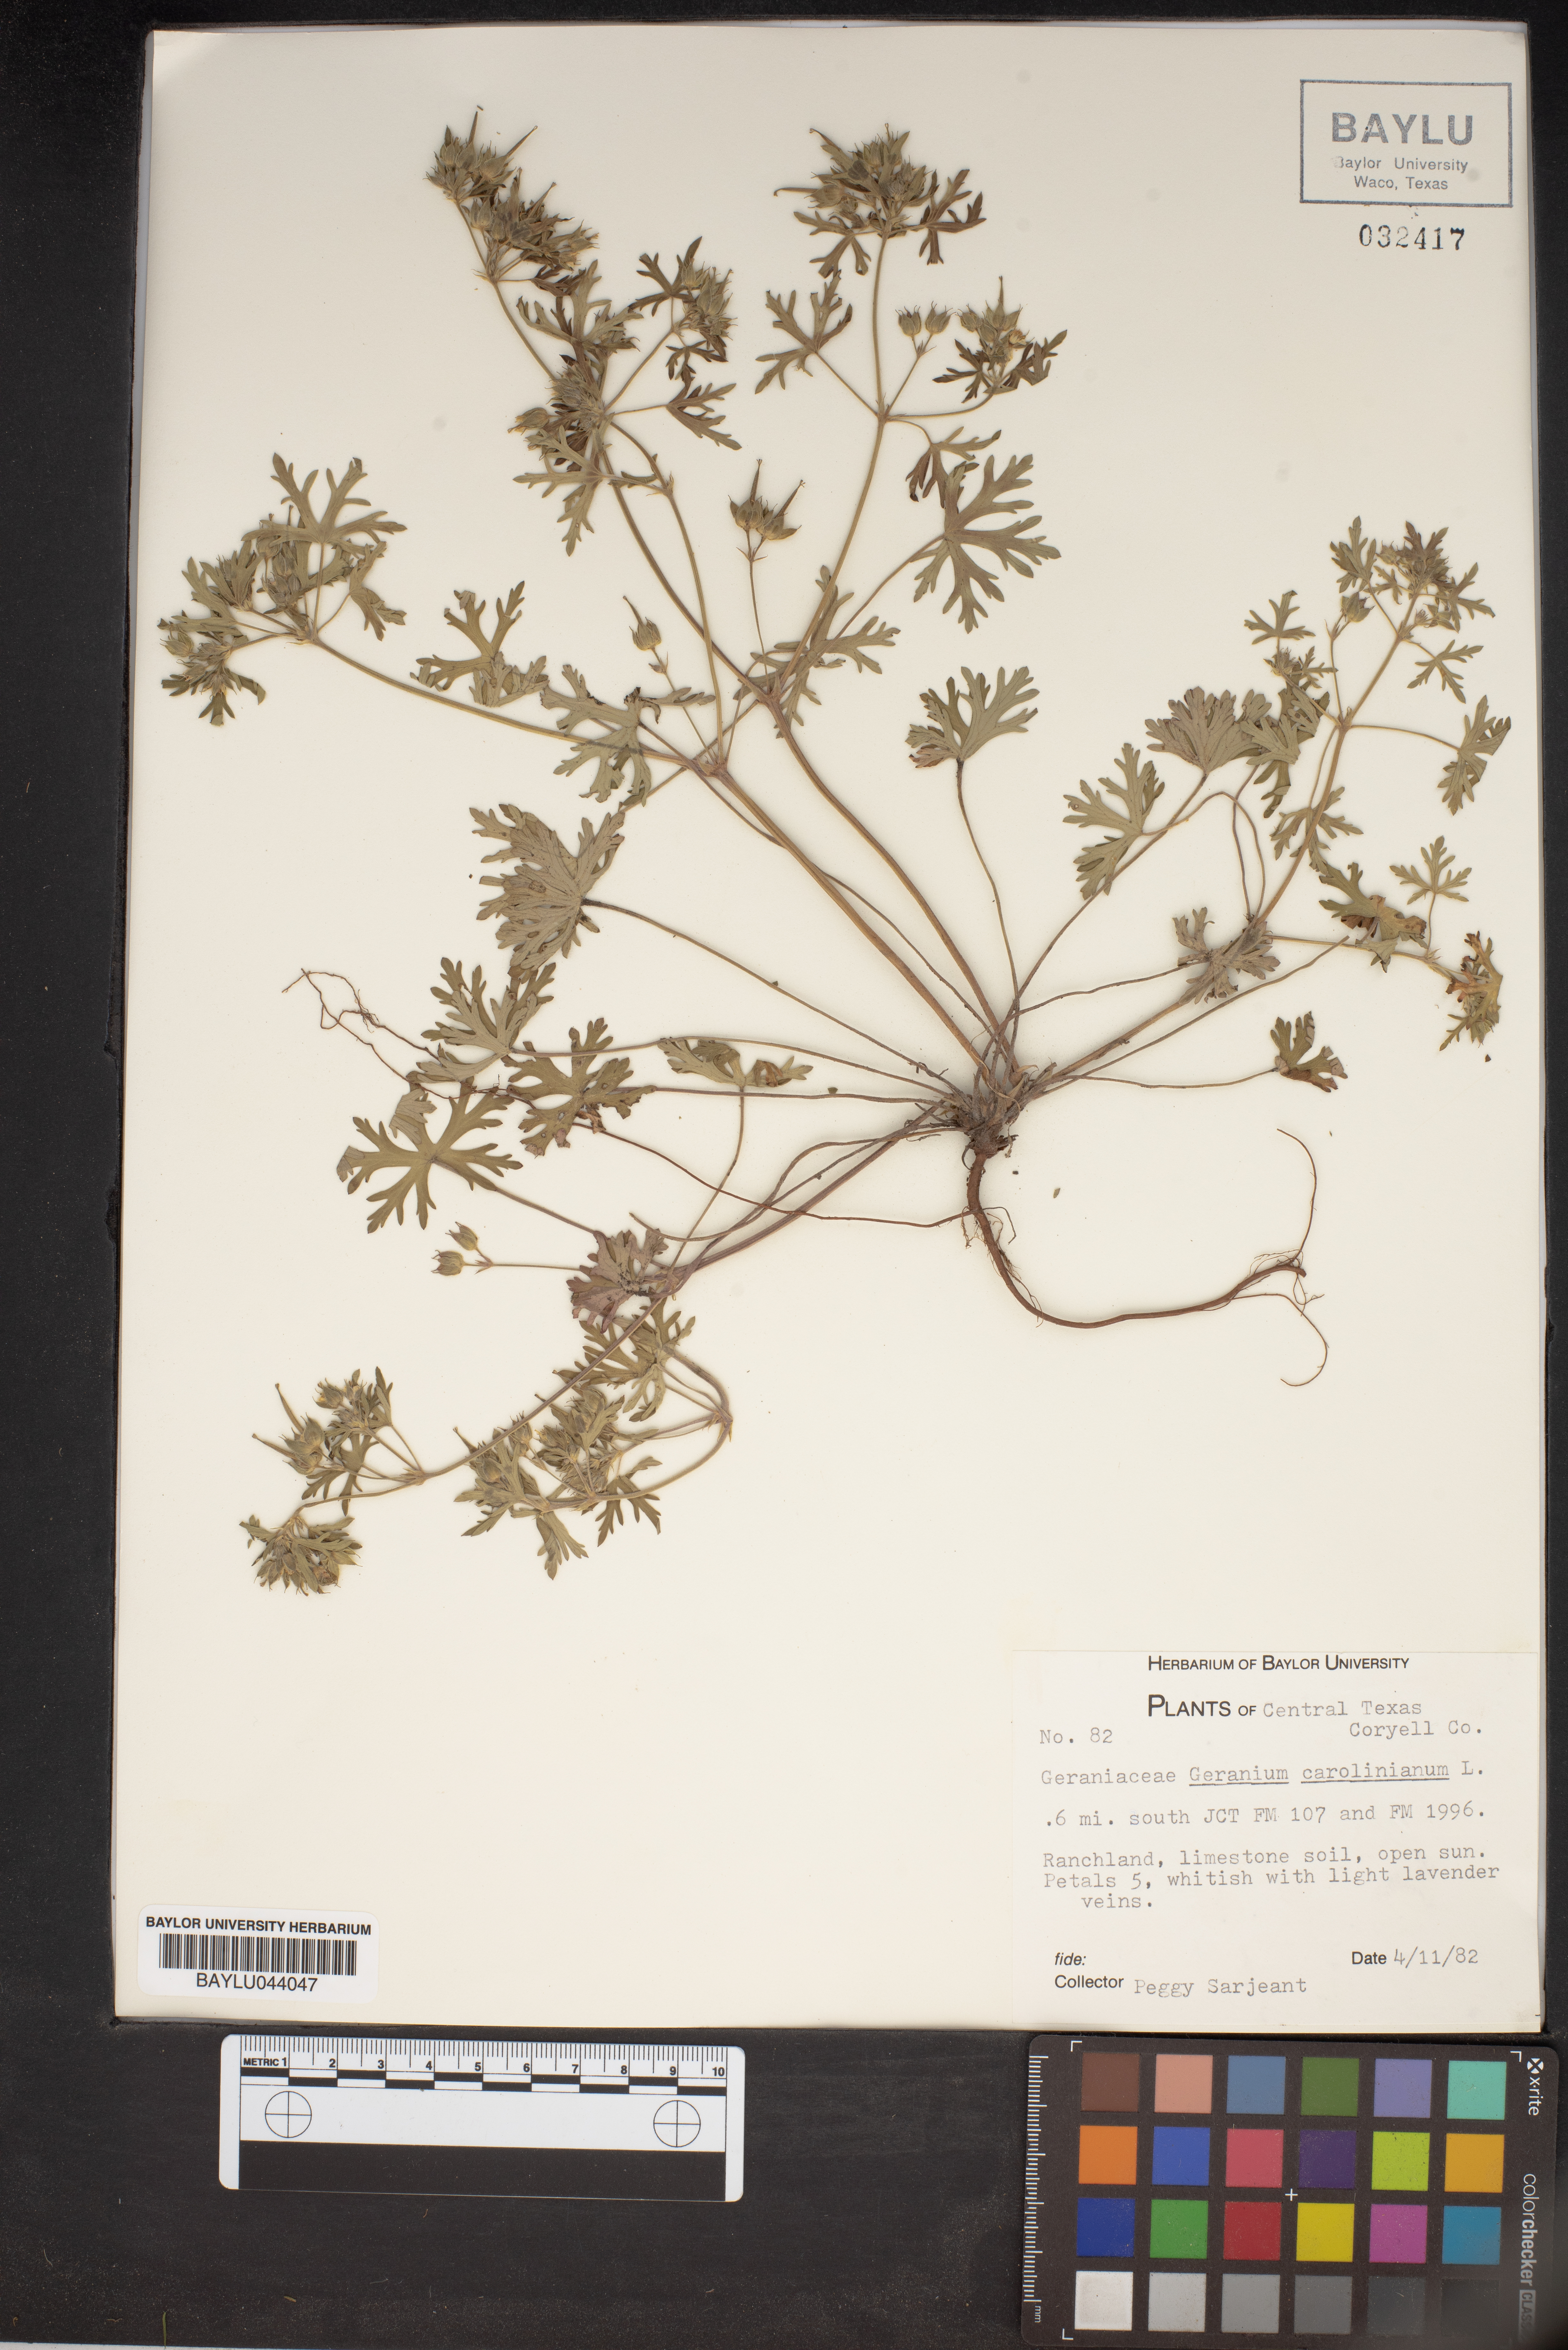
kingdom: Plantae
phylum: Tracheophyta
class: Magnoliopsida
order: Geraniales
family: Geraniaceae
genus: Geranium
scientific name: Geranium carolinianum
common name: Carolina crane's-bill
